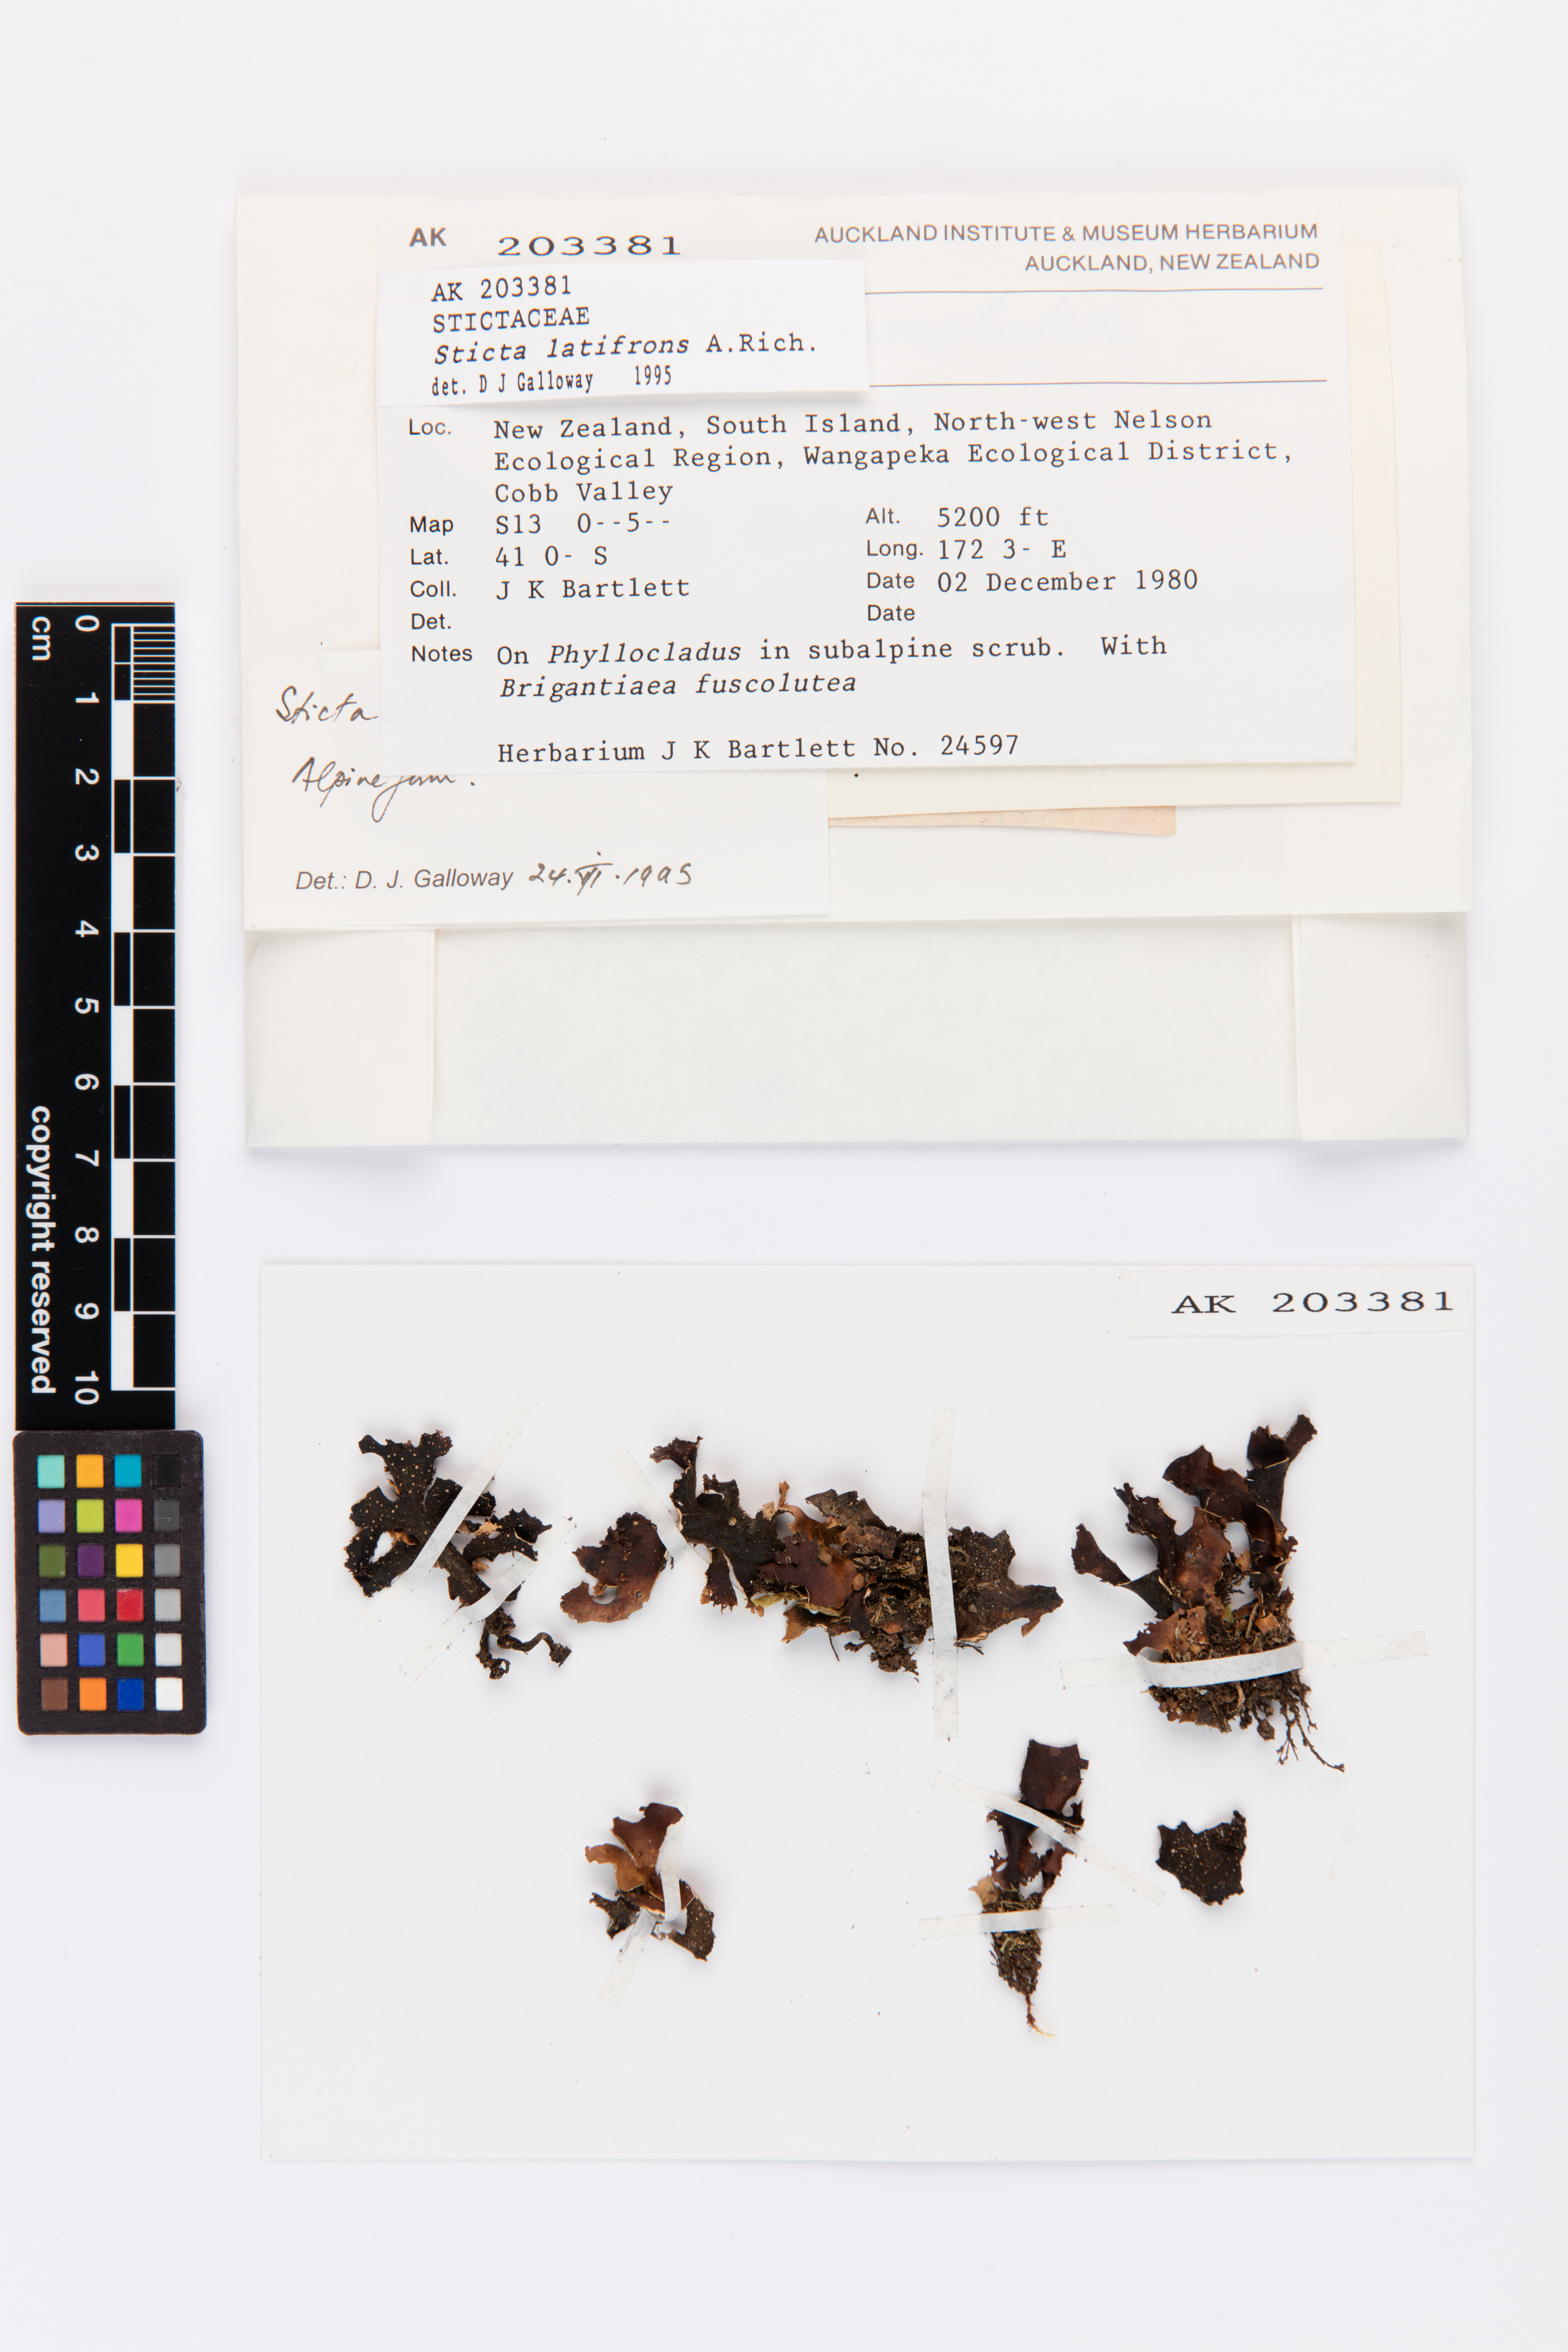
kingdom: Fungi
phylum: Ascomycota
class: Lecanoromycetes
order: Peltigerales
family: Lobariaceae
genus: Sticta
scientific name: Sticta latifrons
